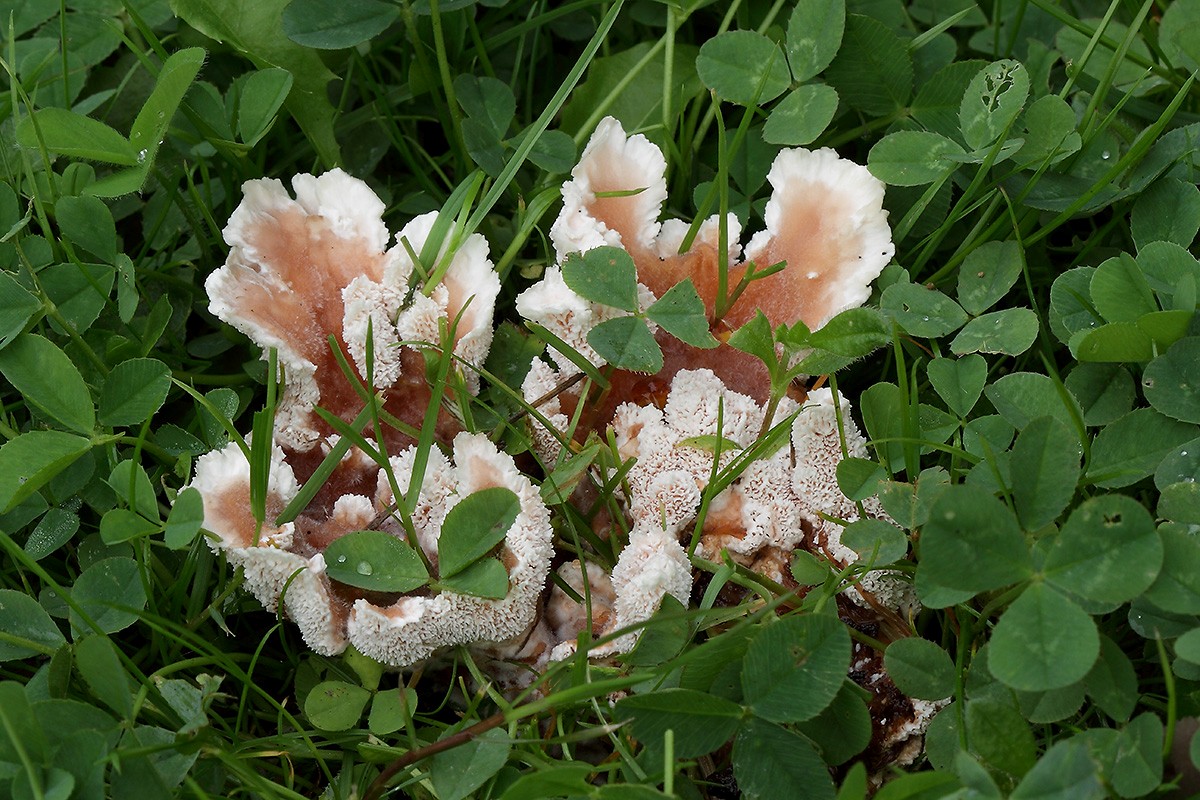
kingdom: Fungi
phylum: Basidiomycota
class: Agaricomycetes
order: Polyporales
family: Podoscyphaceae
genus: Abortiporus
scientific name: Abortiporus biennis
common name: rødmende pjalteporesvamp
